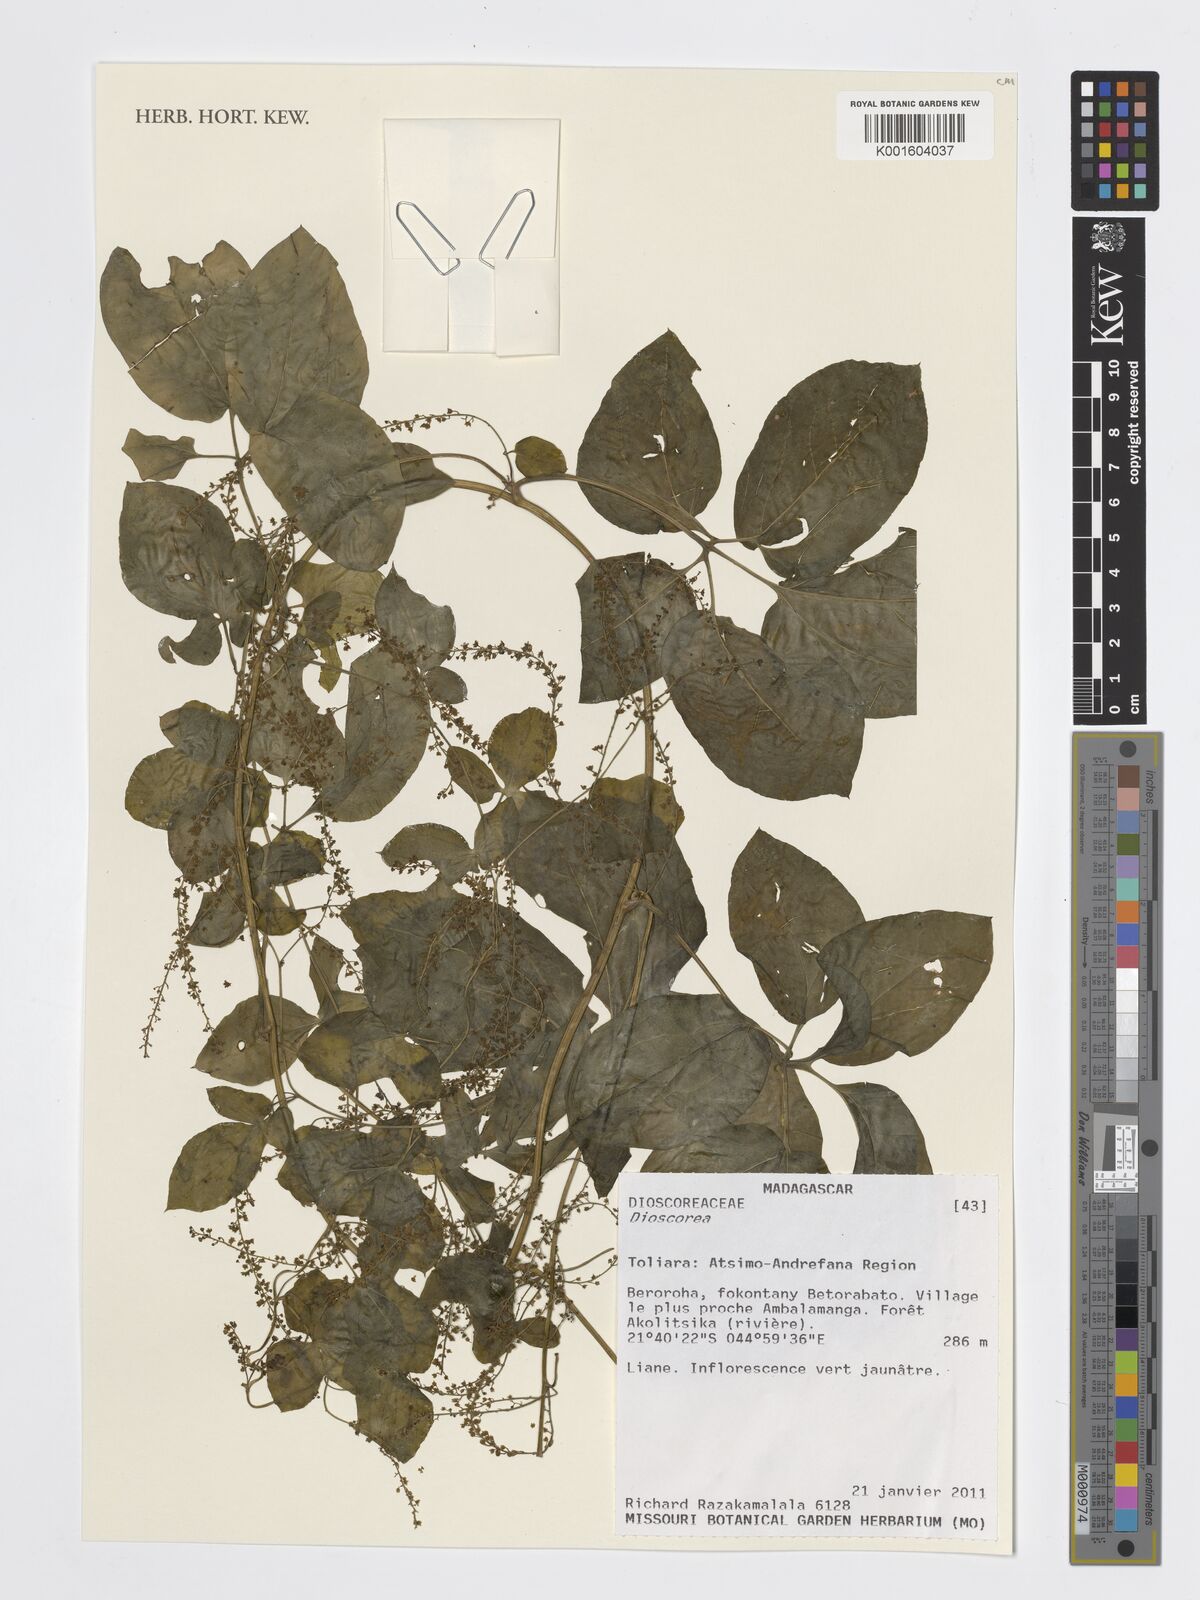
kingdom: Plantae
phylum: Tracheophyta
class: Liliopsida
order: Dioscoreales
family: Dioscoreaceae
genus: Dioscorea
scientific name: Dioscorea
